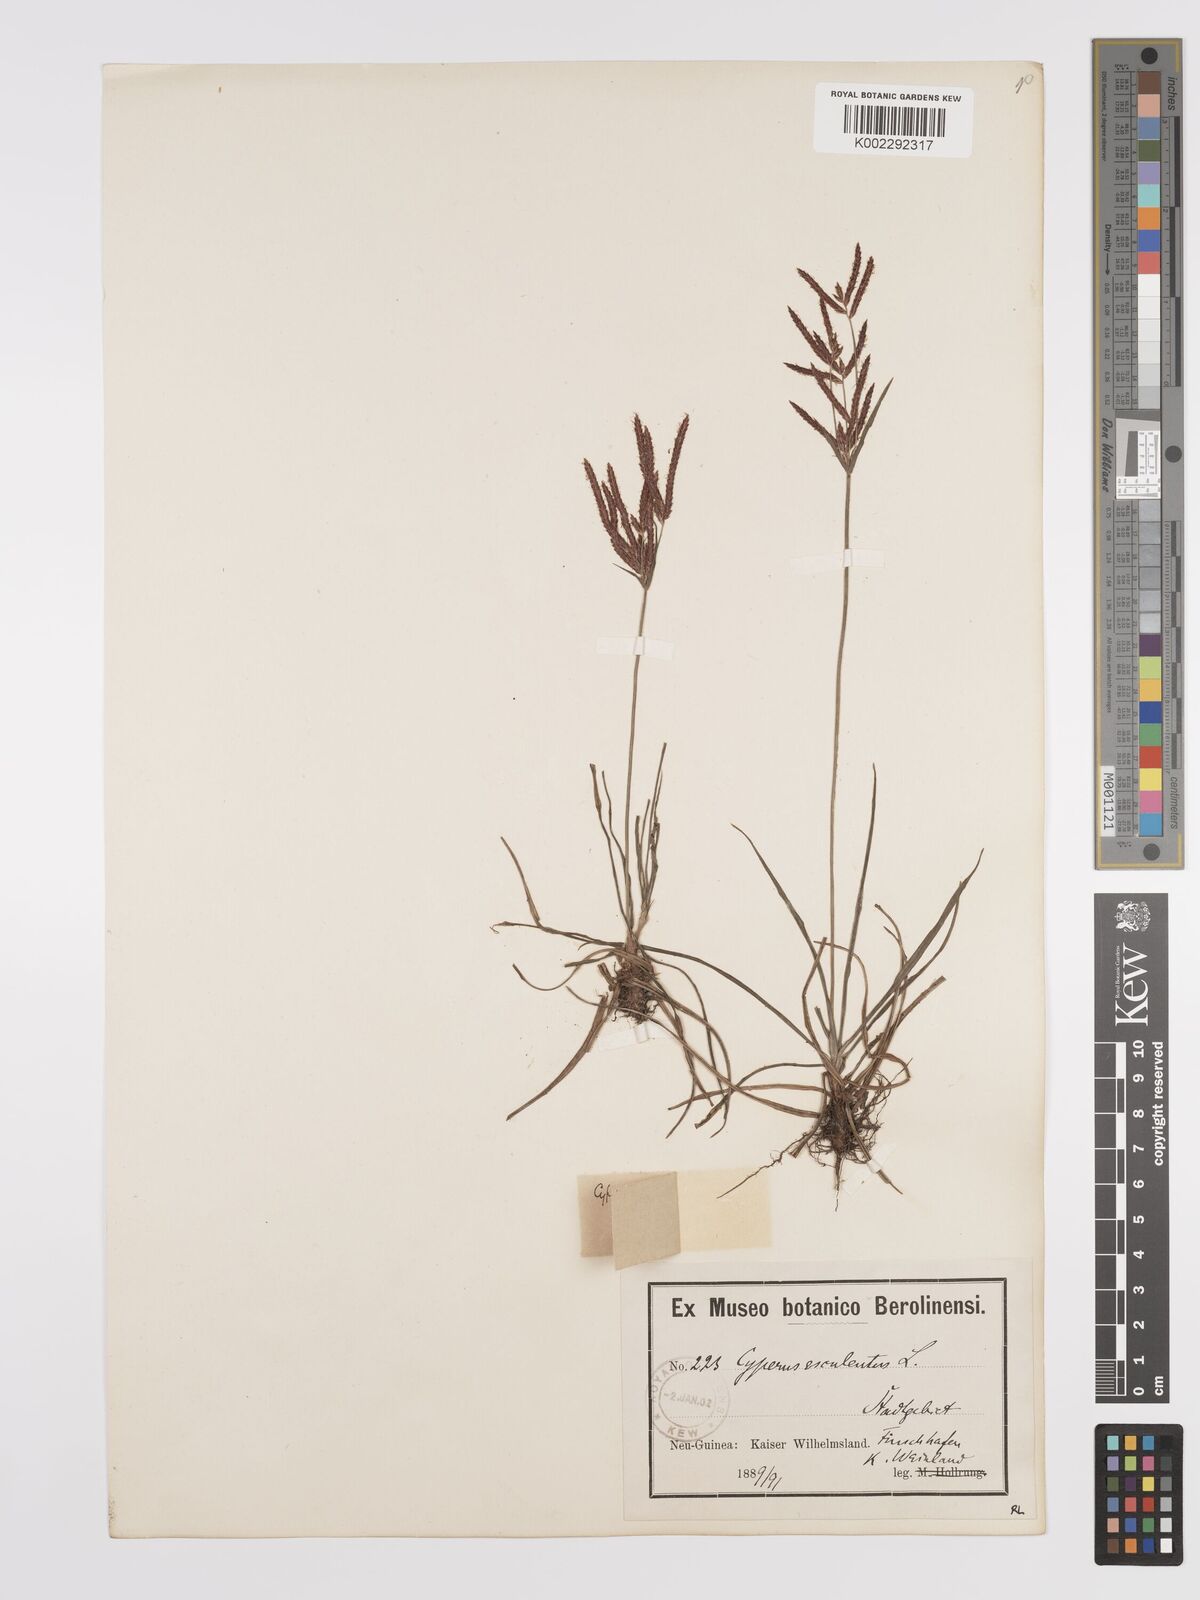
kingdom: Plantae
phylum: Tracheophyta
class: Liliopsida
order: Poales
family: Cyperaceae
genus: Cyperus
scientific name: Cyperus rotundus
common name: Nutgrass
